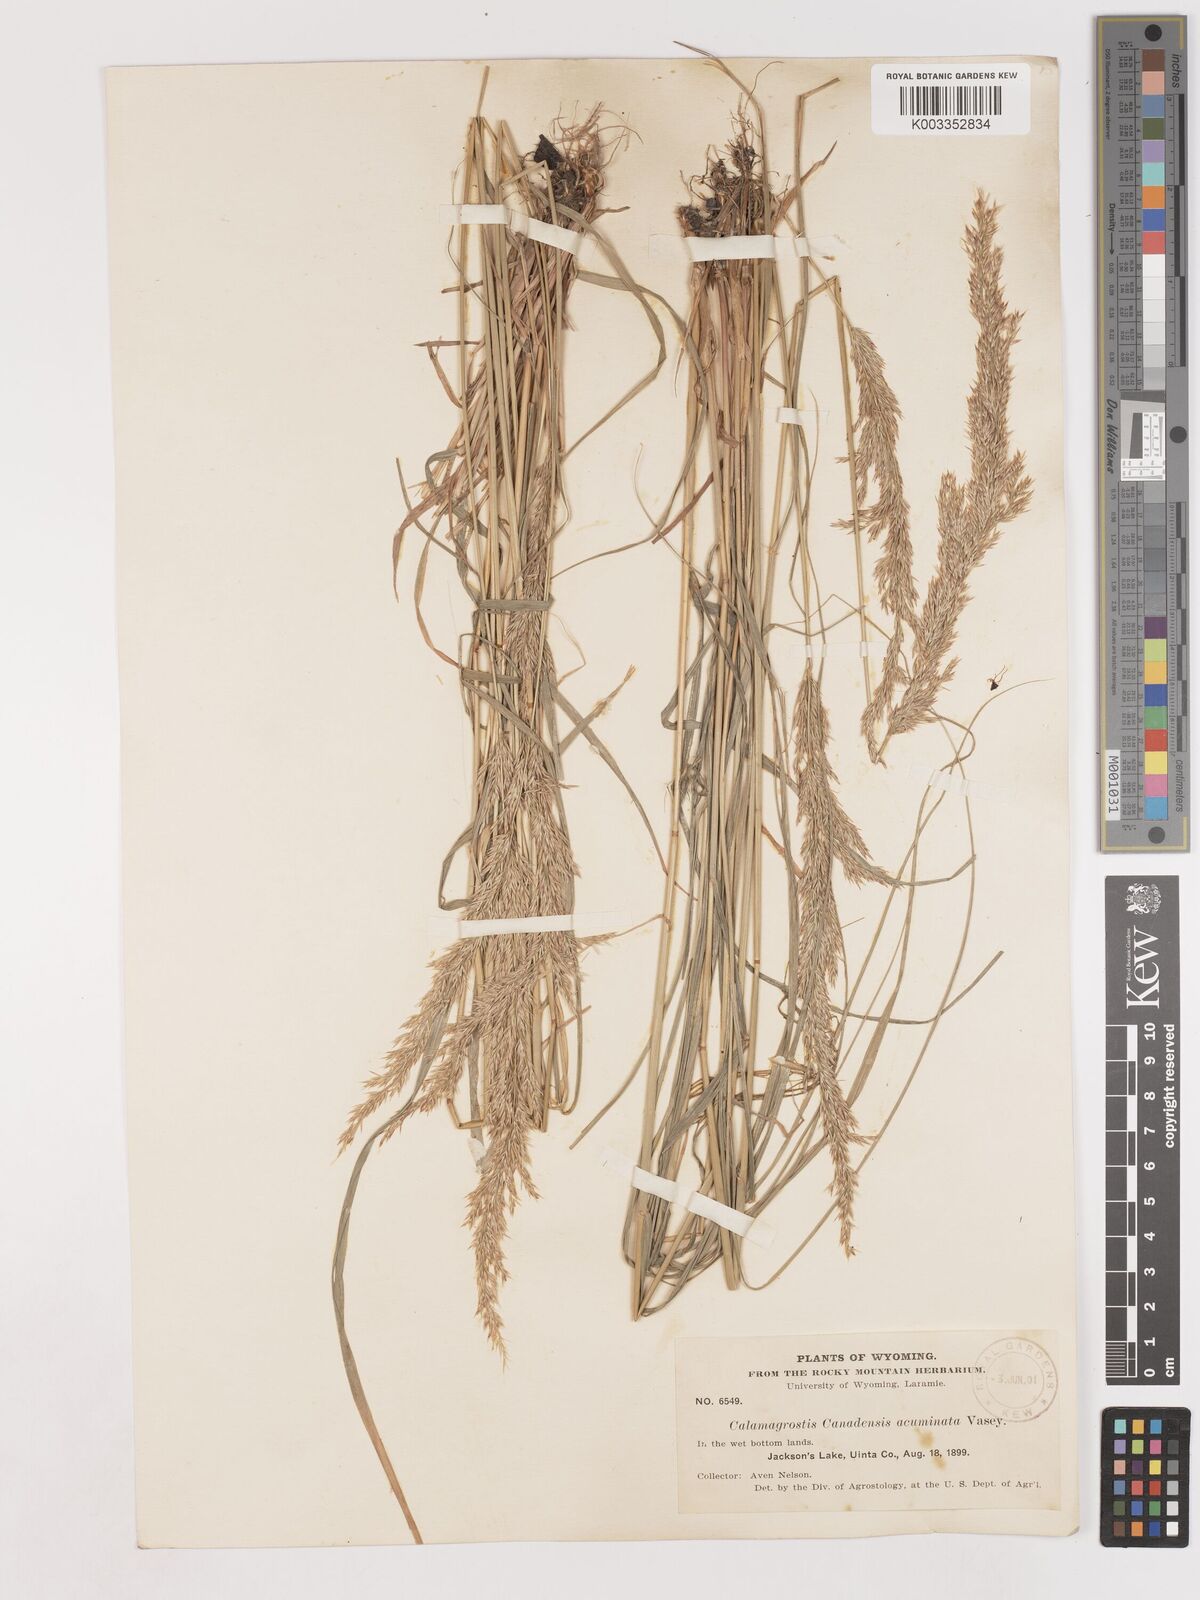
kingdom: Plantae
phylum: Tracheophyta
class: Liliopsida
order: Poales
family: Poaceae
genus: Calamagrostis
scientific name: Calamagrostis canadensis
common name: Canada bluejoint
